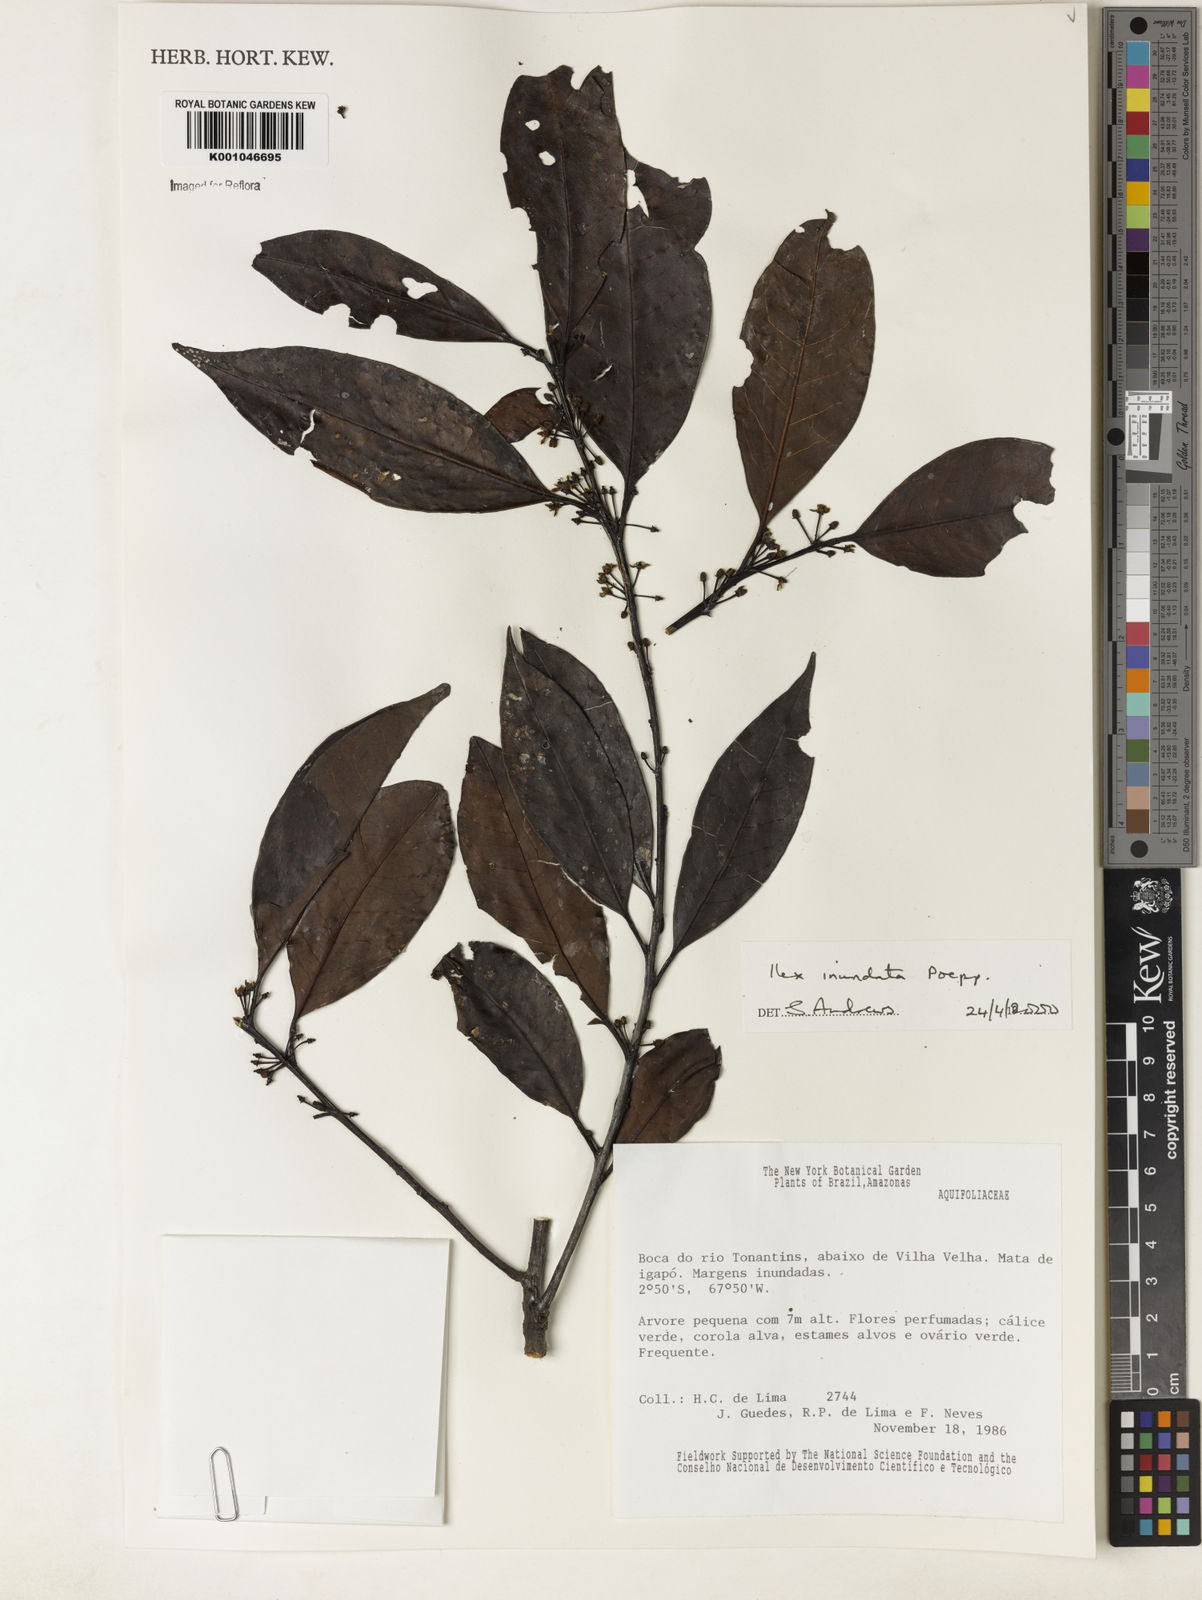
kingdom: Plantae
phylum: Tracheophyta
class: Magnoliopsida
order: Aquifoliales
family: Aquifoliaceae
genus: Ilex
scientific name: Ilex inundata
